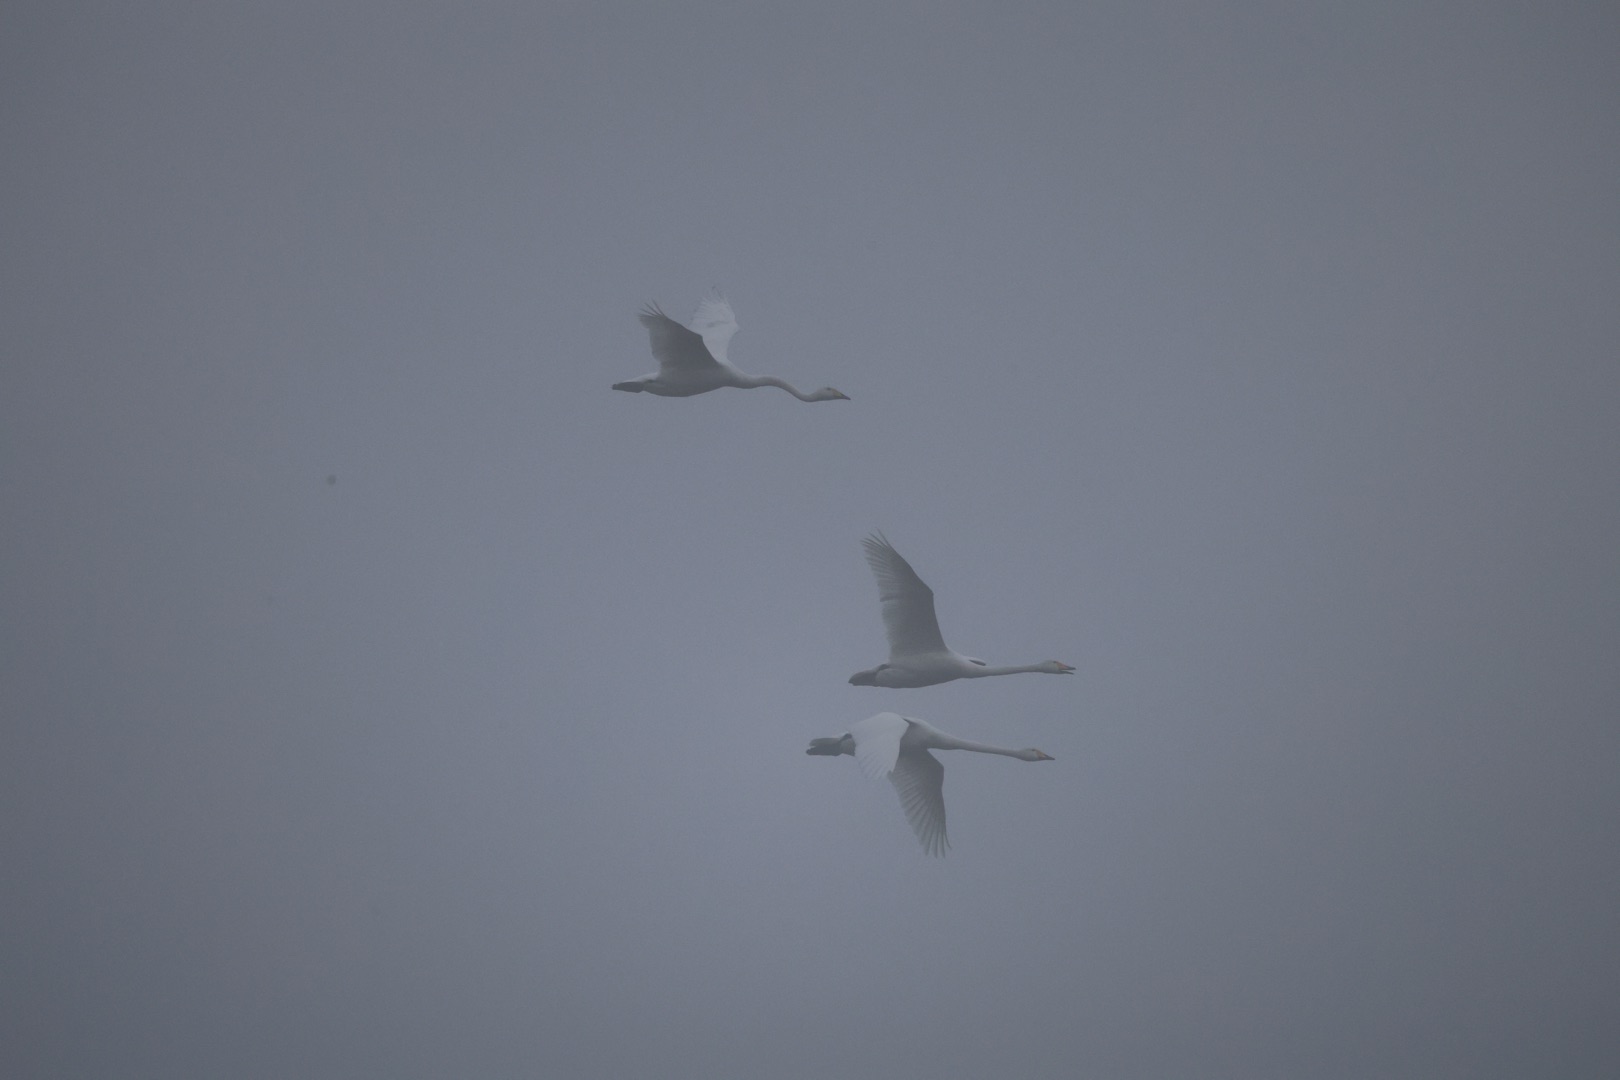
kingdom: Animalia
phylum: Chordata
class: Aves
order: Anseriformes
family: Anatidae
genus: Cygnus
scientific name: Cygnus cygnus
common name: Sangsvane
